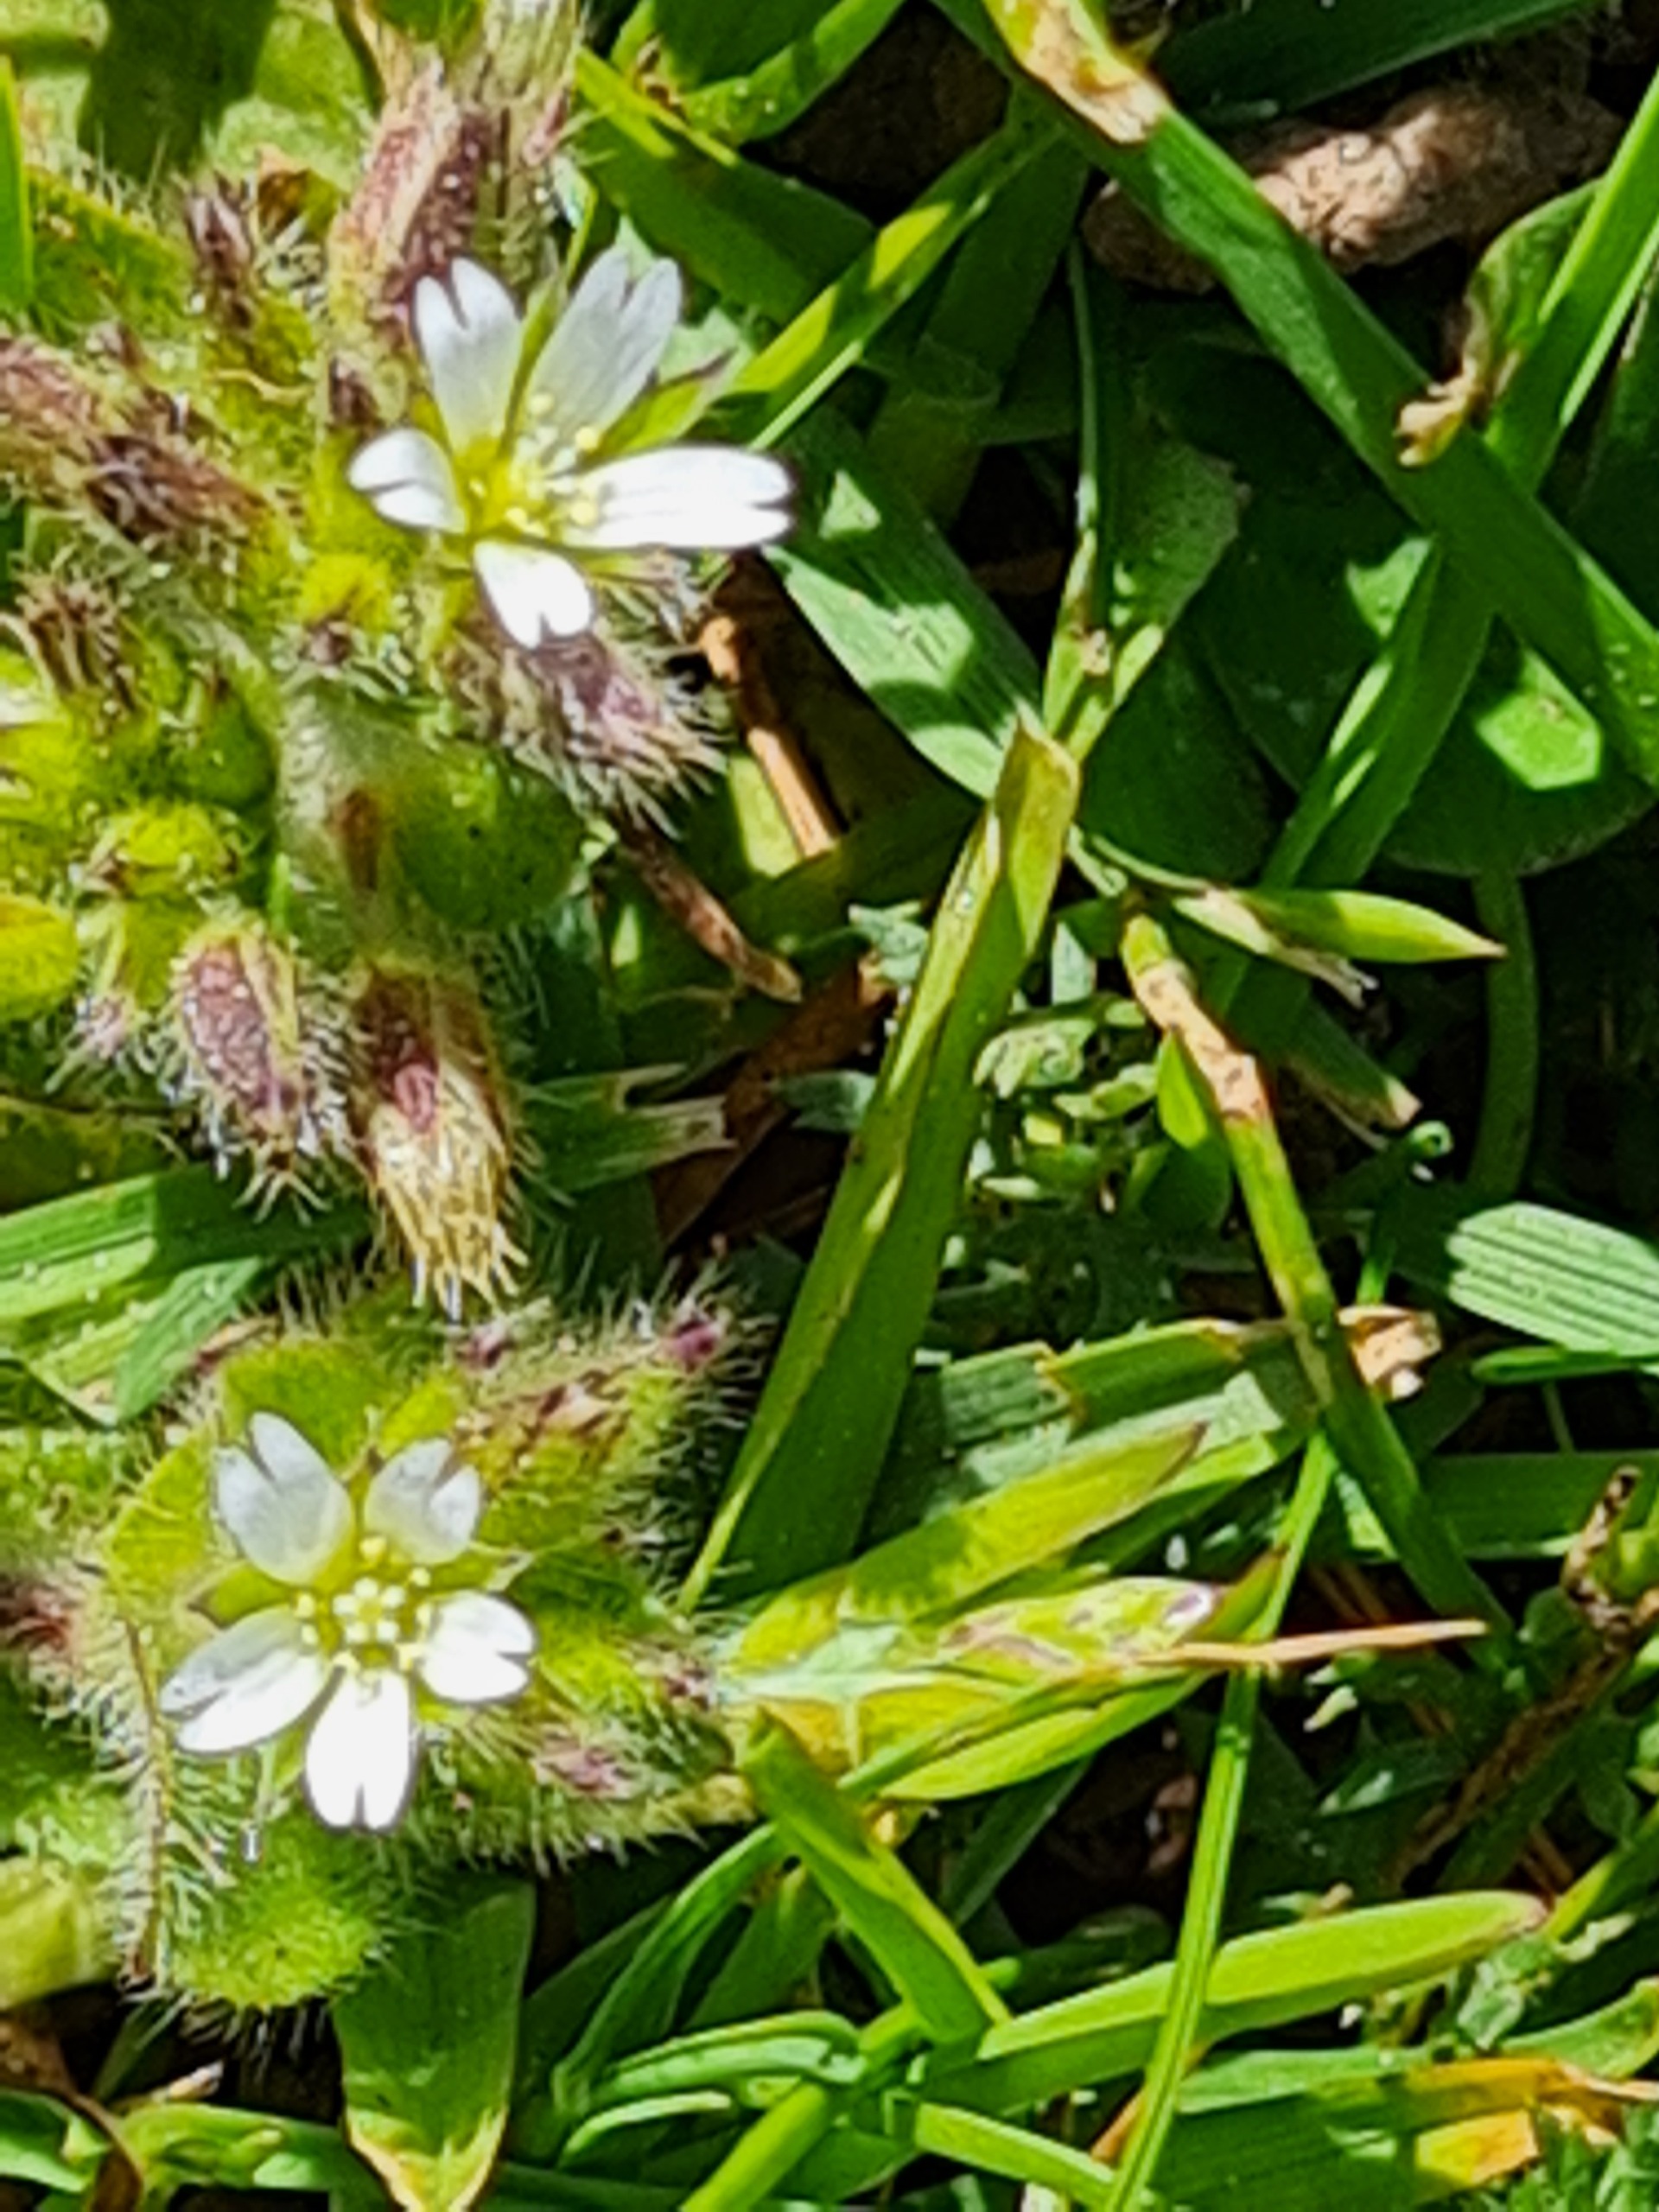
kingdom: Plantae
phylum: Tracheophyta
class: Magnoliopsida
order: Caryophyllales
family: Caryophyllaceae
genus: Cerastium
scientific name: Cerastium glomeratum
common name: Opret hønsetarm
